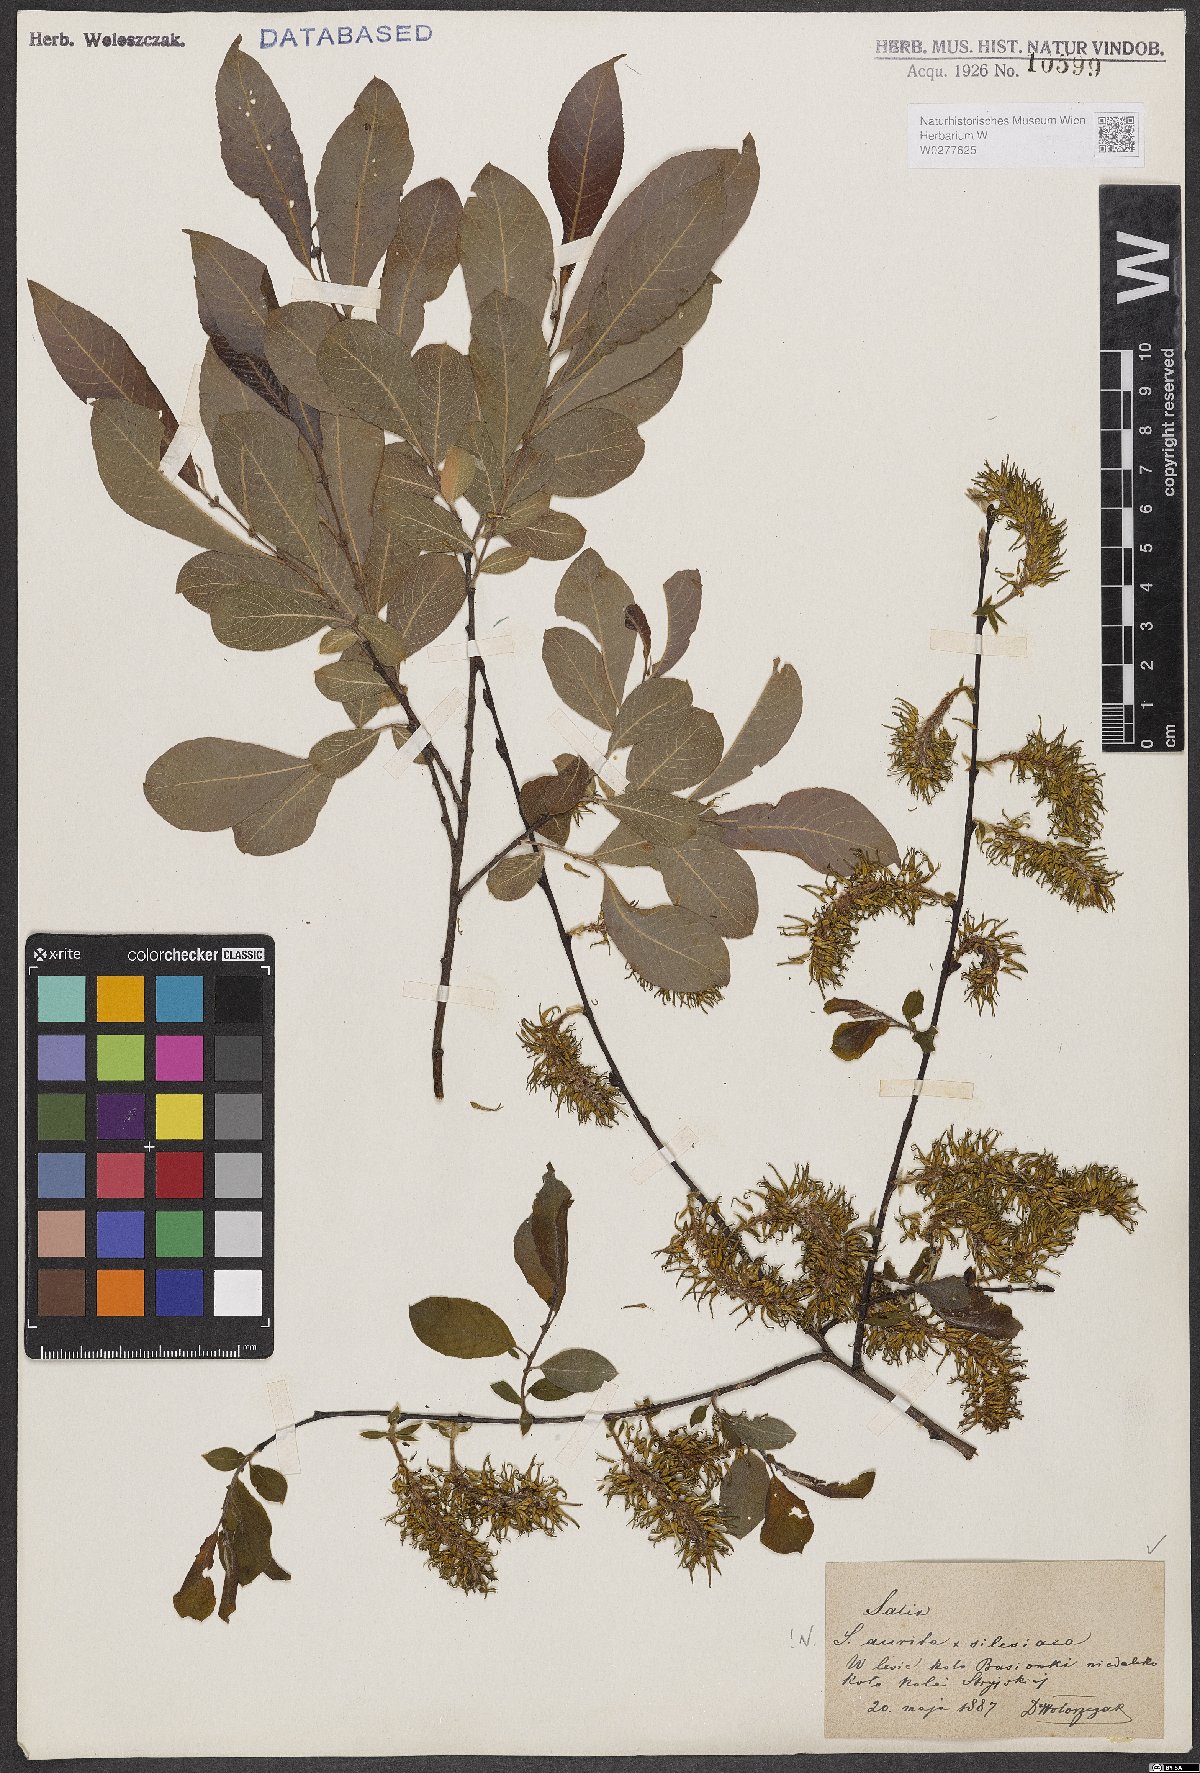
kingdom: Plantae
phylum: Tracheophyta
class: Magnoliopsida
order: Malpighiales
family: Salicaceae
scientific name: Salicaceae
